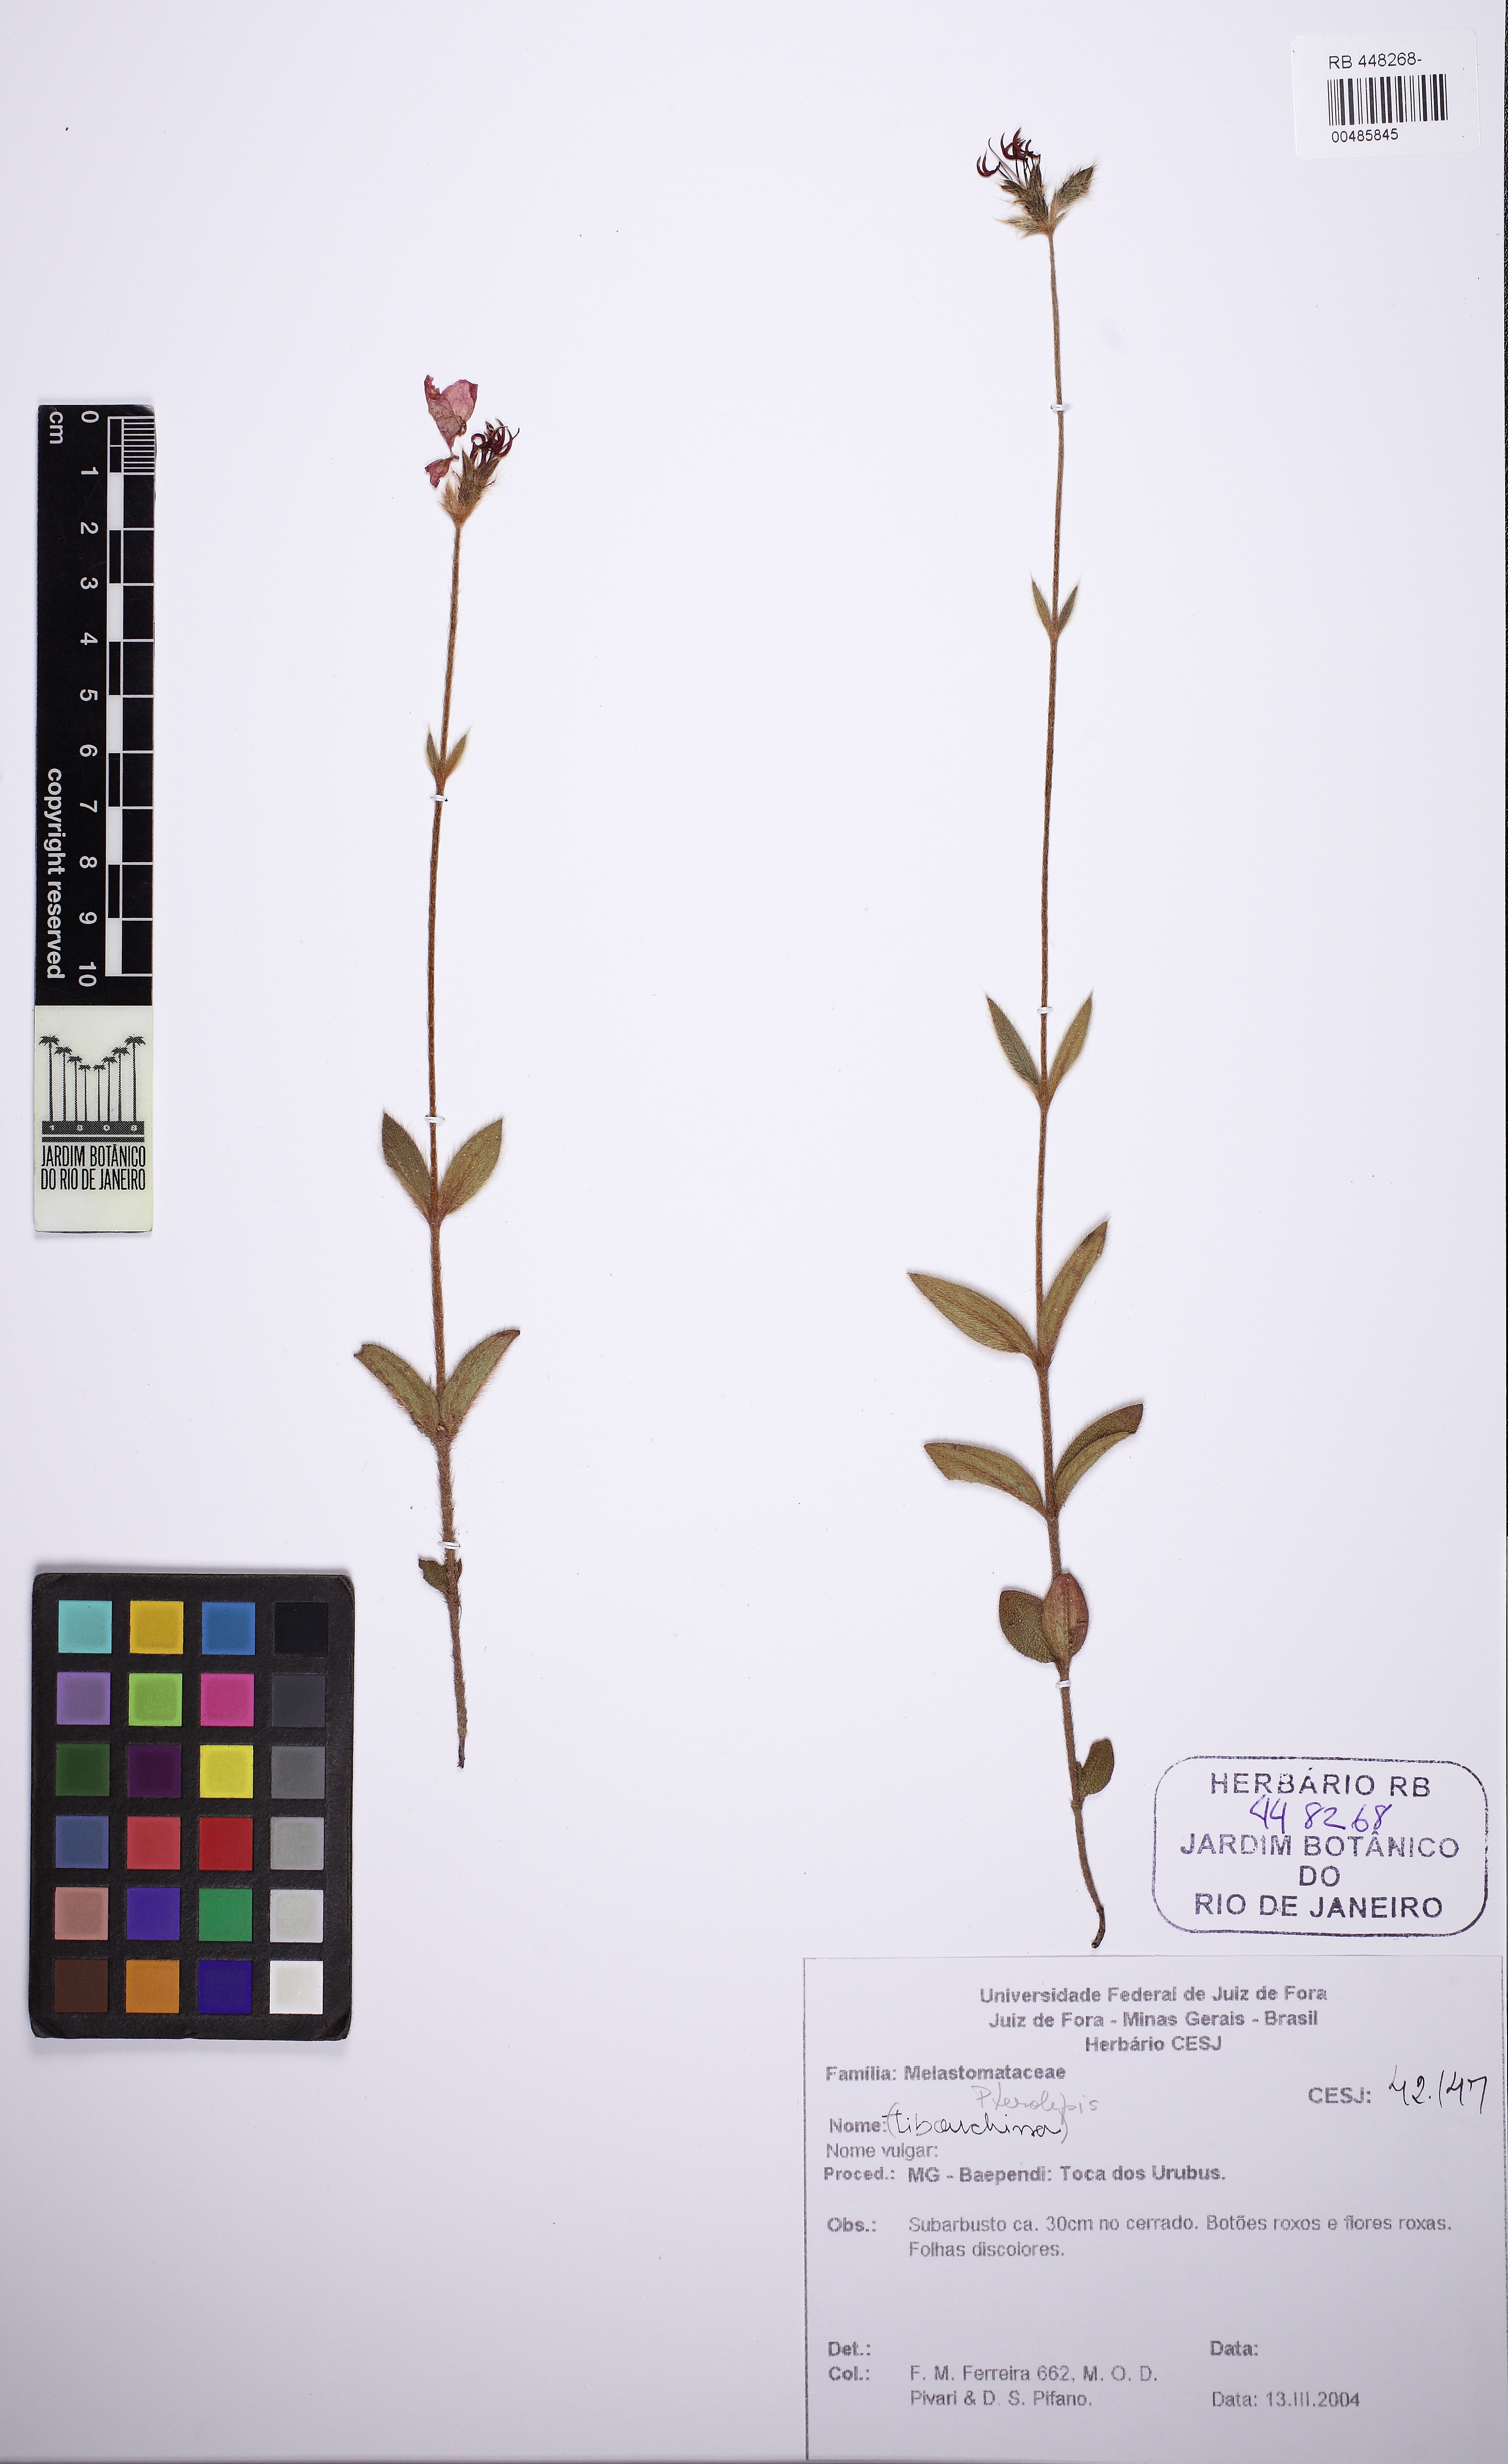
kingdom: Plantae
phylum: Tracheophyta
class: Magnoliopsida
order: Myrtales
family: Melastomataceae
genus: Pterolepis
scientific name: Pterolepis repanda
